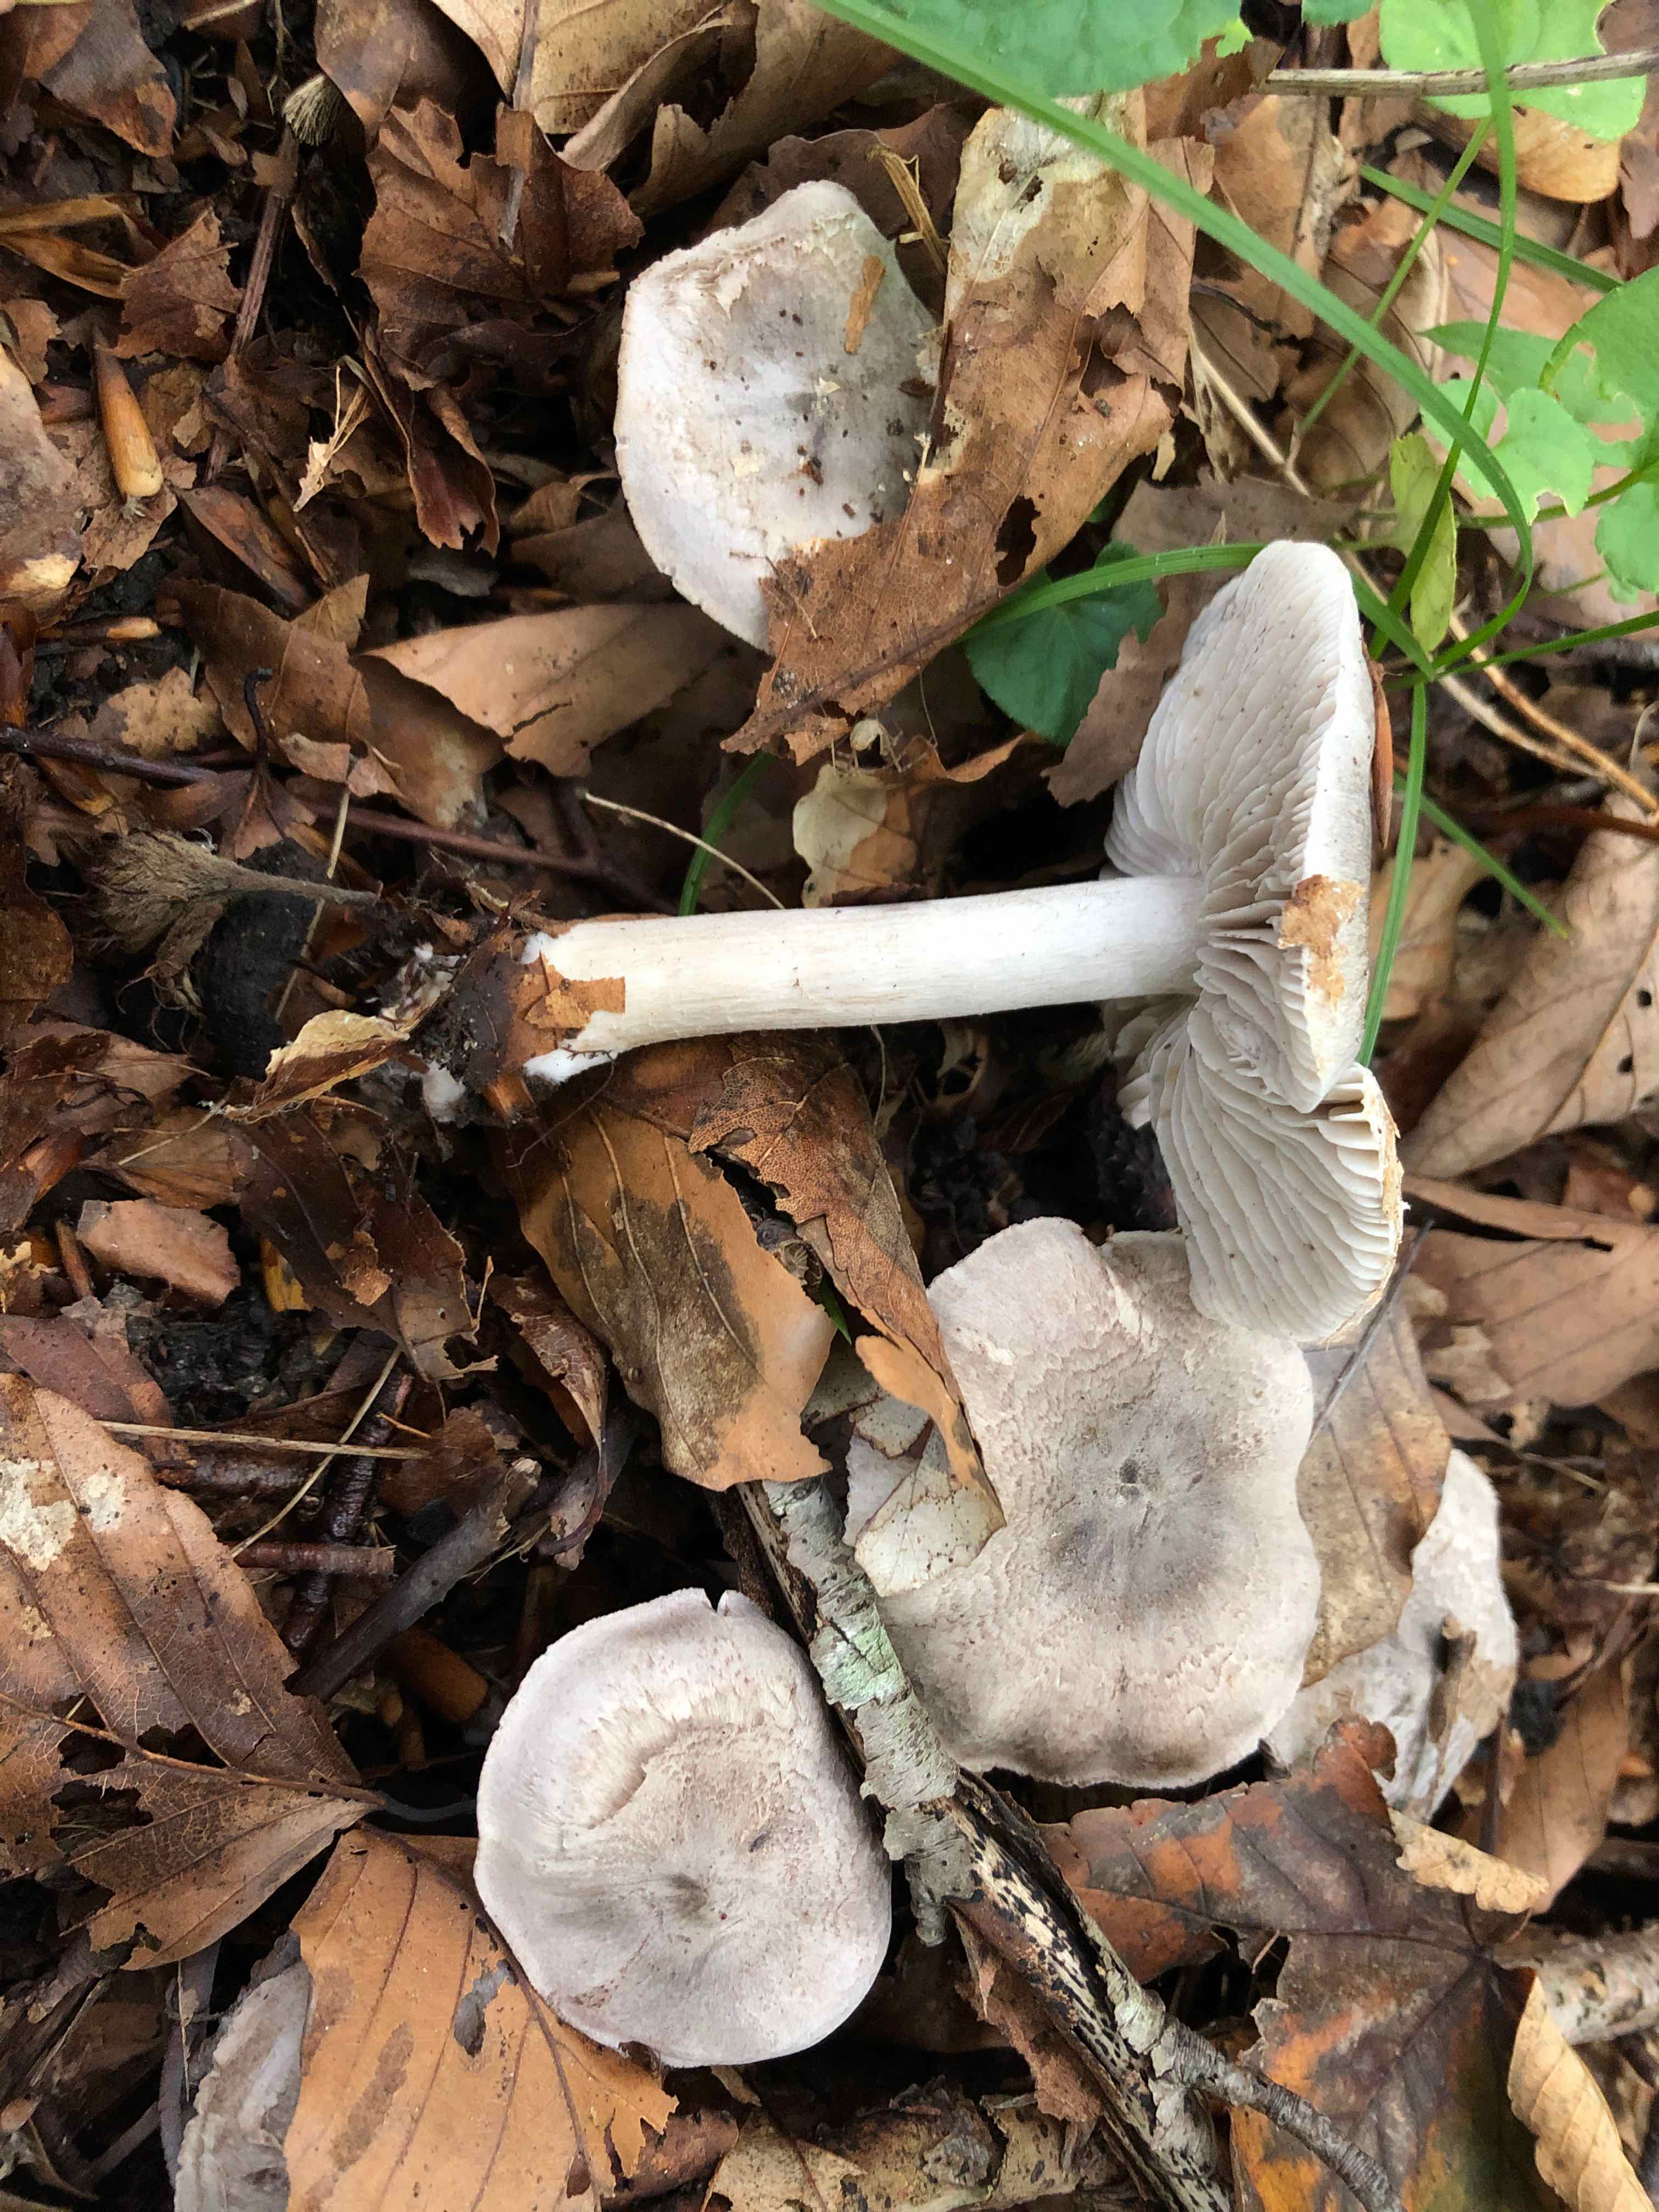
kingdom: Fungi
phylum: Basidiomycota
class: Agaricomycetes
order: Agaricales
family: Tricholomataceae
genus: Tricholoma
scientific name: Tricholoma sciodes
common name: stribet ridderhat
